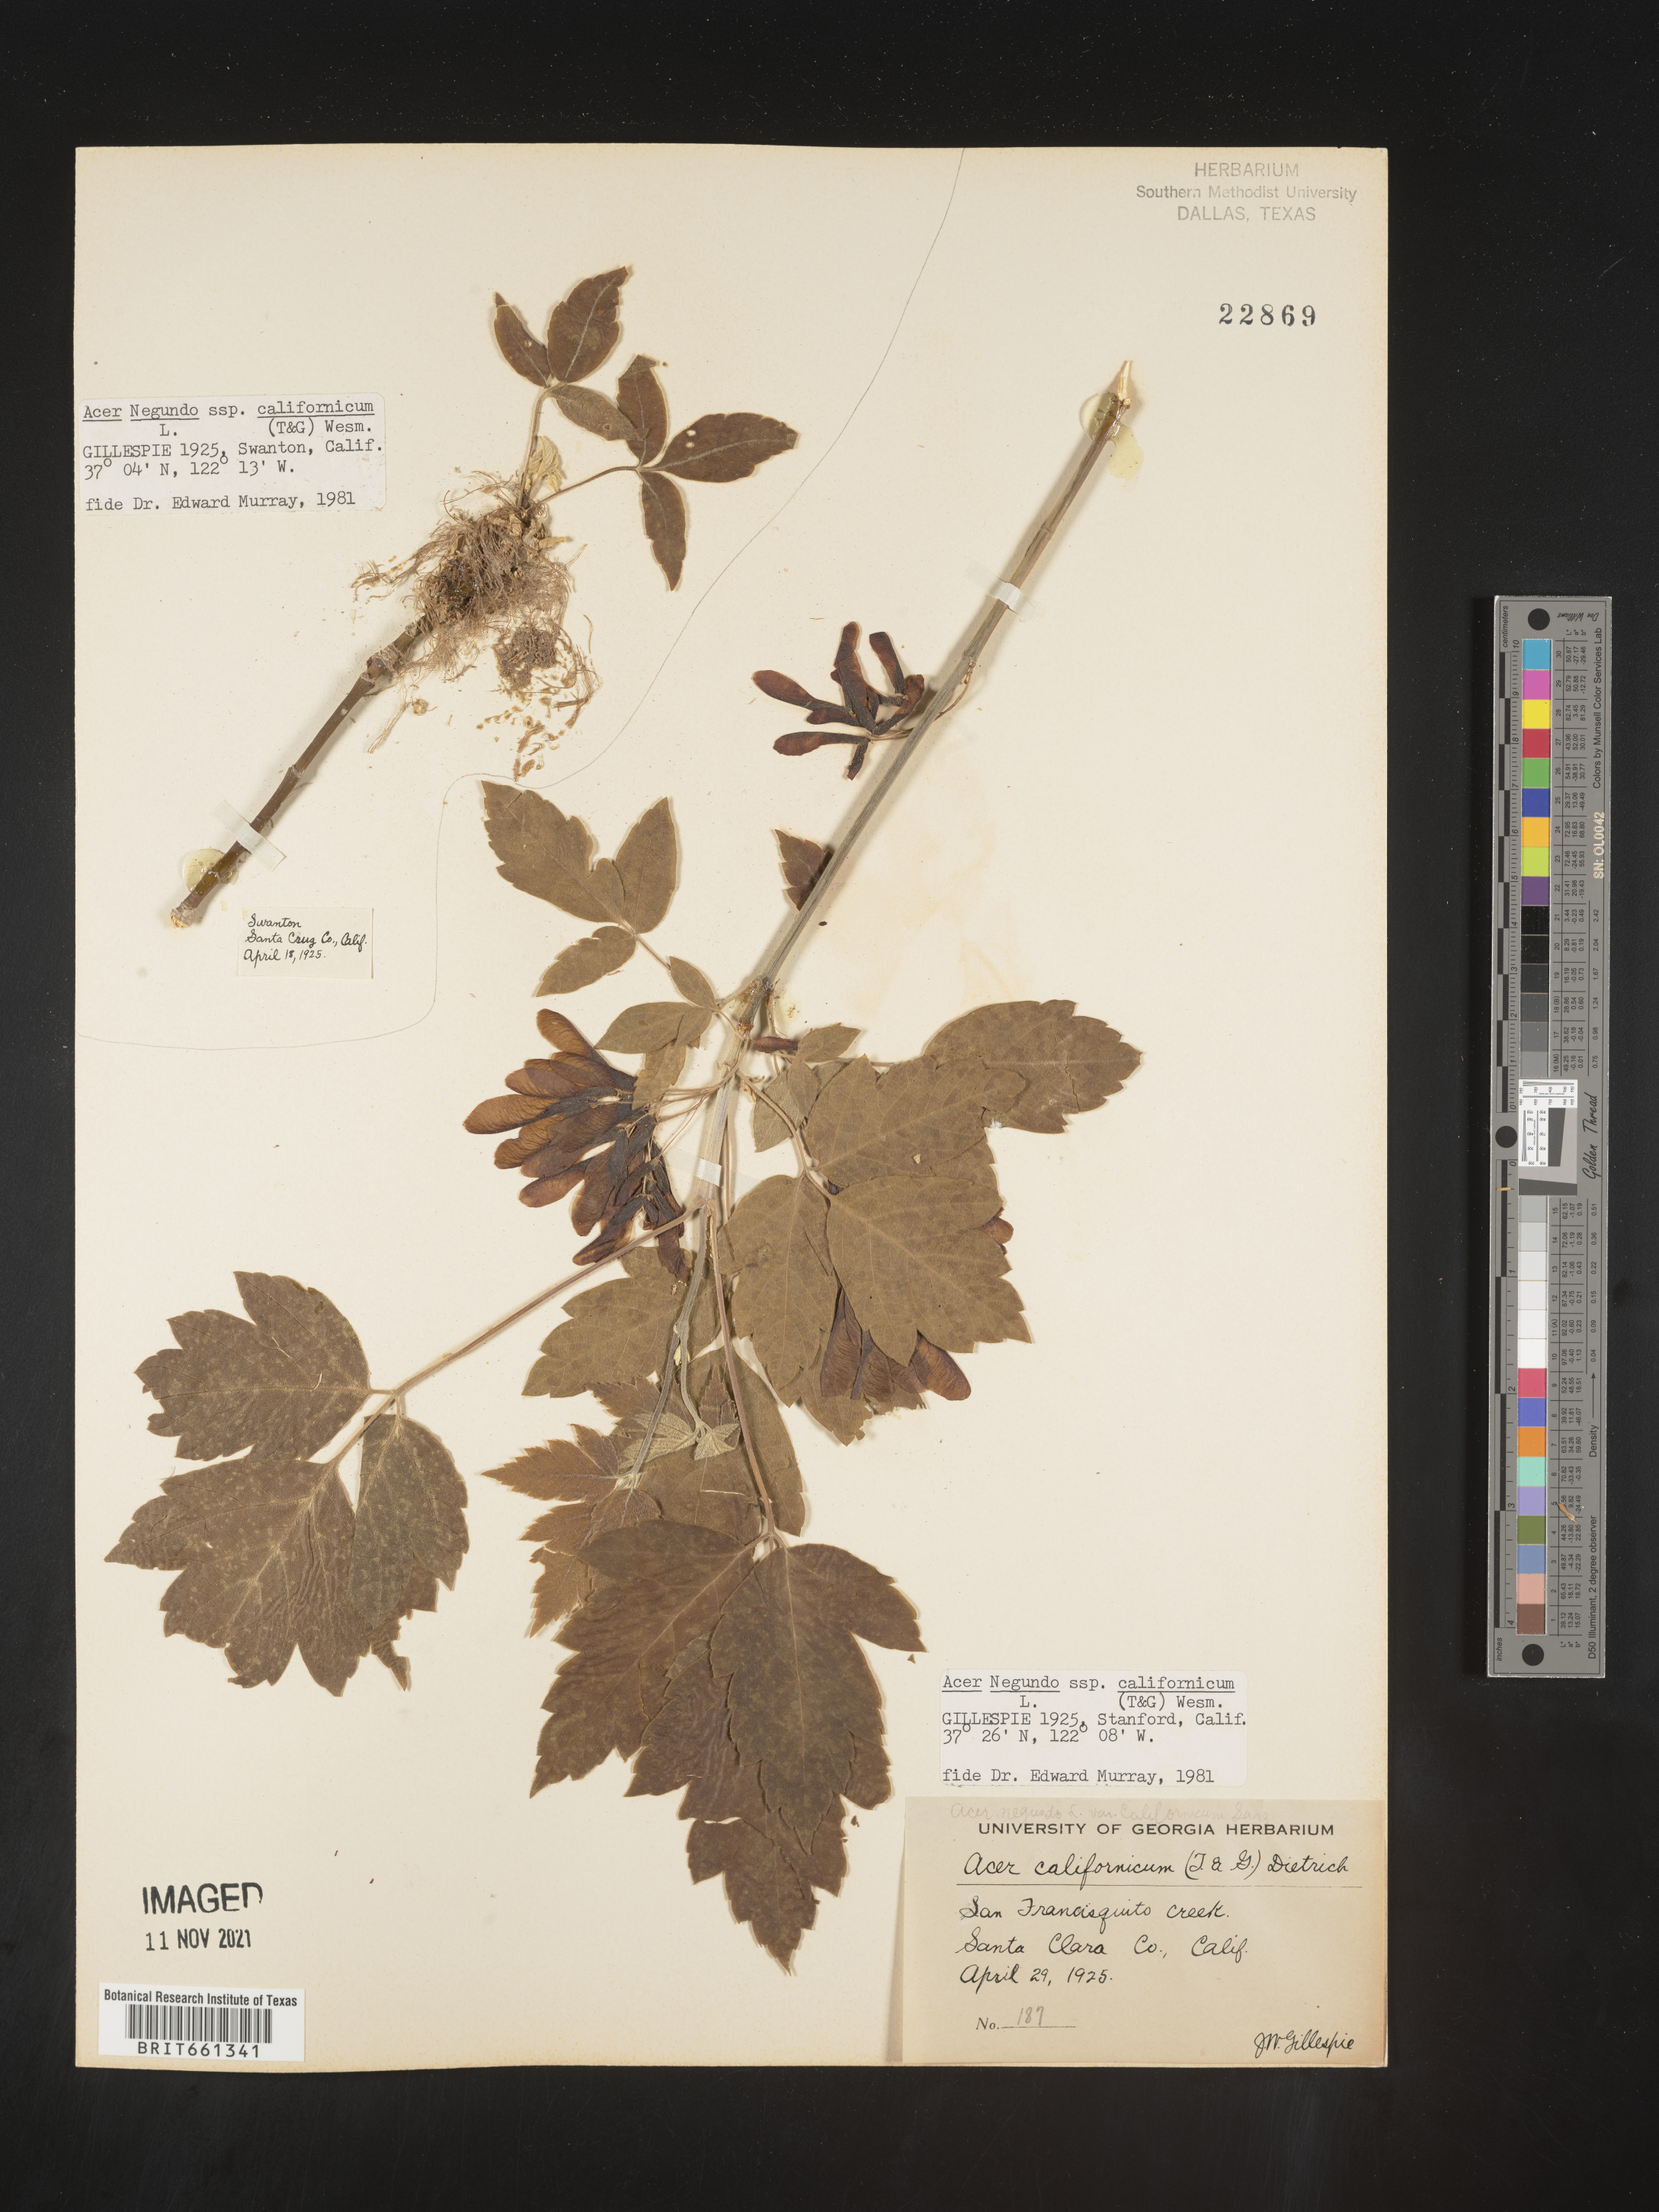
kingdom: Plantae
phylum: Tracheophyta
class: Magnoliopsida
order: Sapindales
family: Sapindaceae
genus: Acer
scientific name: Acer negundo
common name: Ashleaf maple
